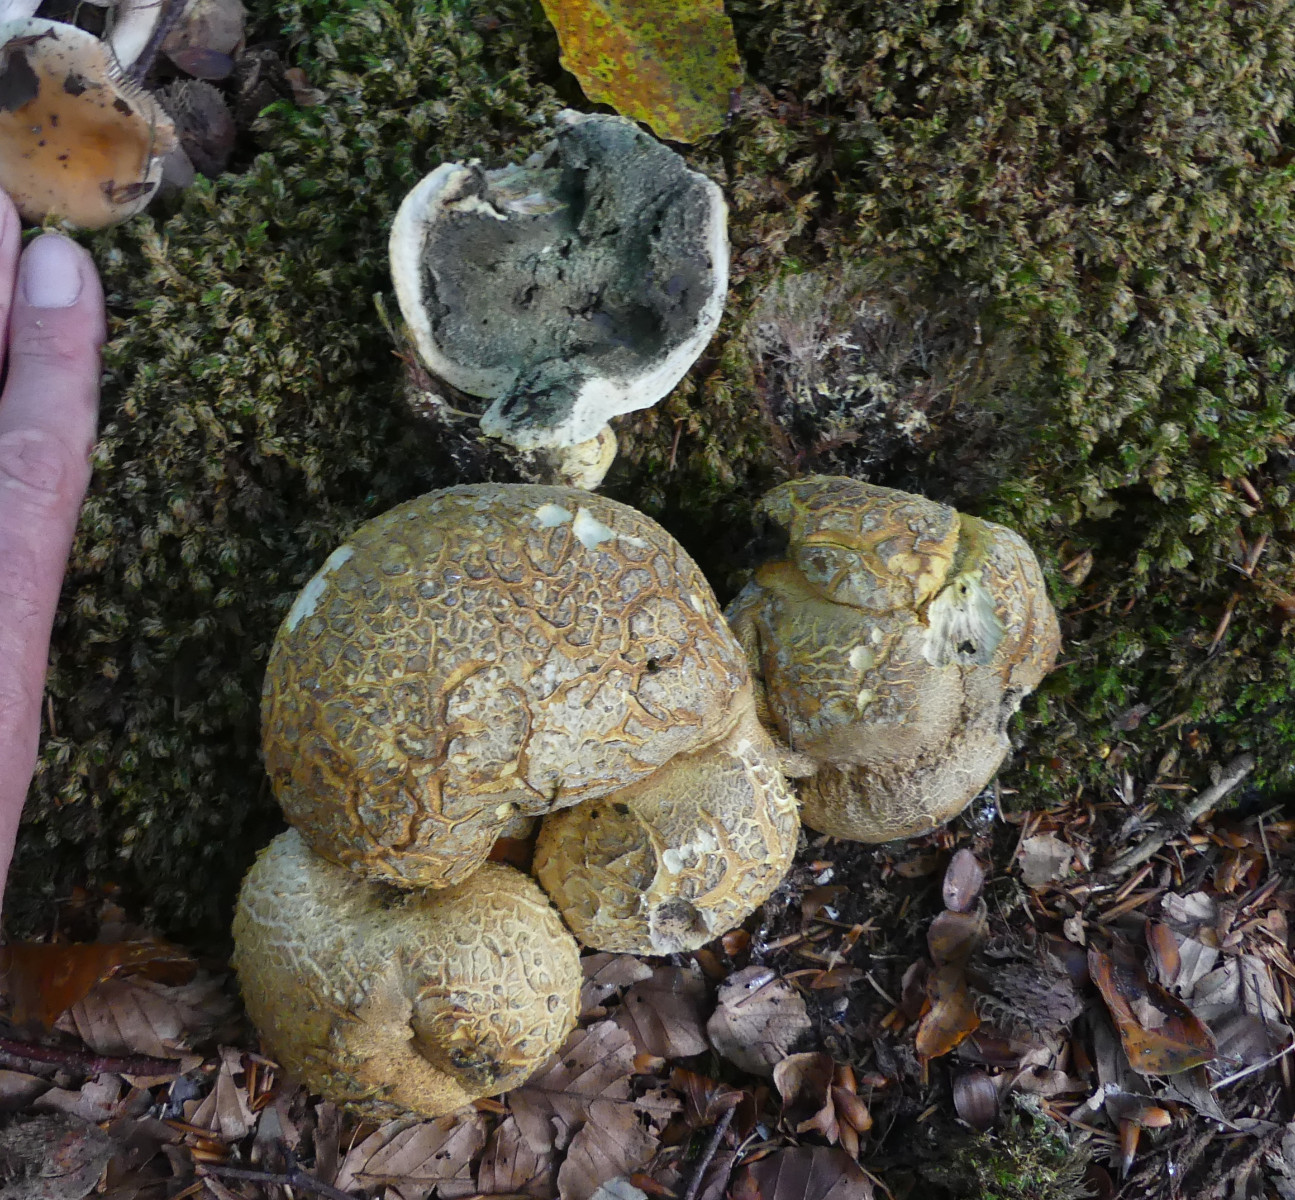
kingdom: Fungi
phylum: Basidiomycota
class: Agaricomycetes
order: Boletales
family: Sclerodermataceae
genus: Scleroderma
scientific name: Scleroderma citrinum
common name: almindelig bruskbold
